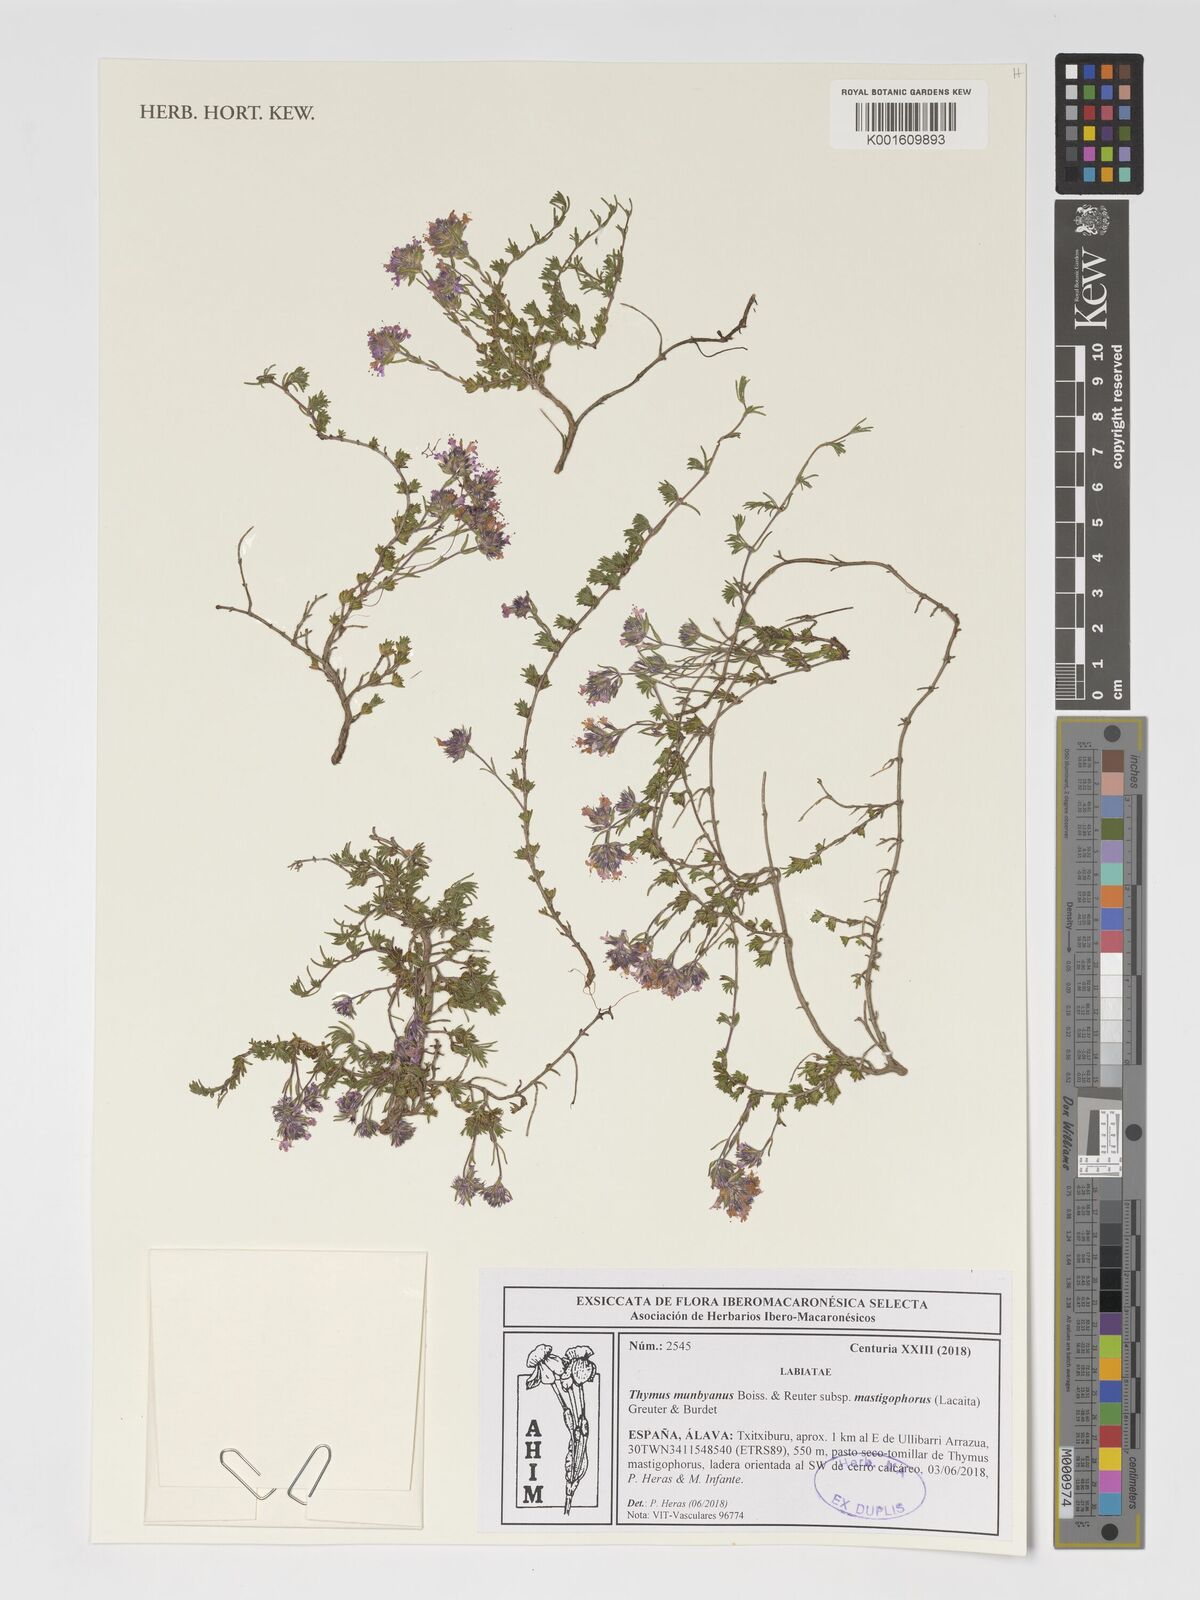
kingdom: Plantae
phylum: Tracheophyta
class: Magnoliopsida
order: Lamiales
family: Lamiaceae
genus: Thymus
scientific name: Thymus mastigophorus
